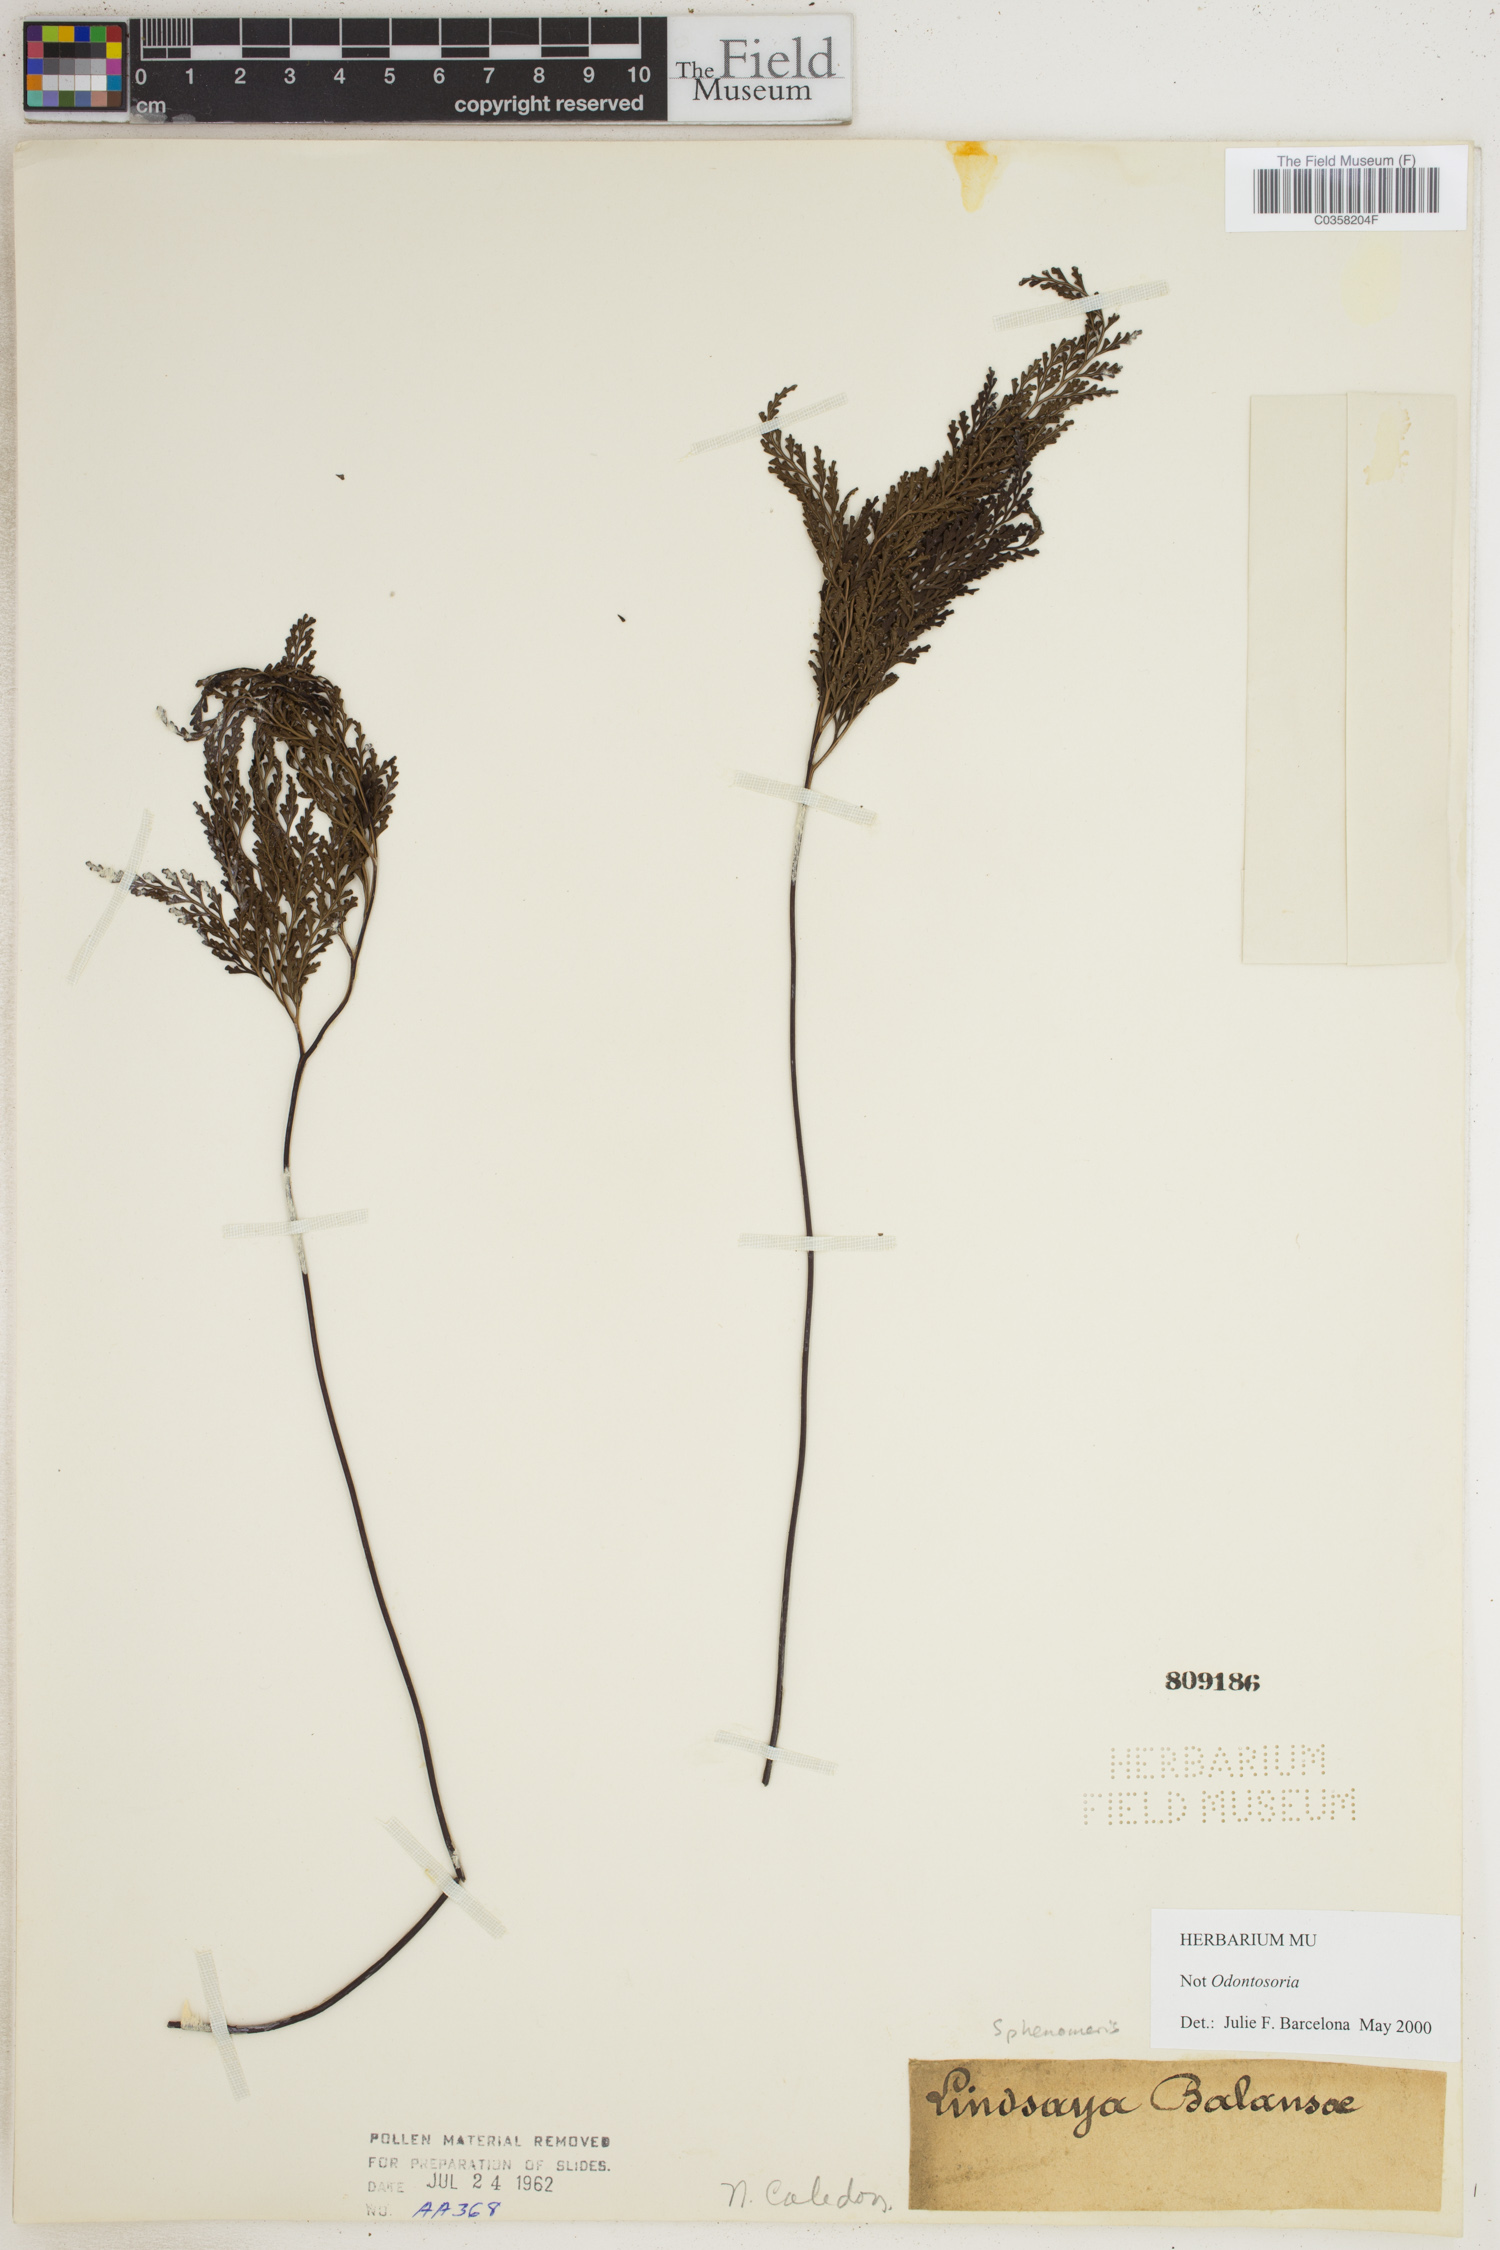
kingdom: Plantae
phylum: Tracheophyta
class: Polypodiopsida
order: Polypodiales
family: Lindsaeaceae
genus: Sphenomeris
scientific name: Sphenomeris
